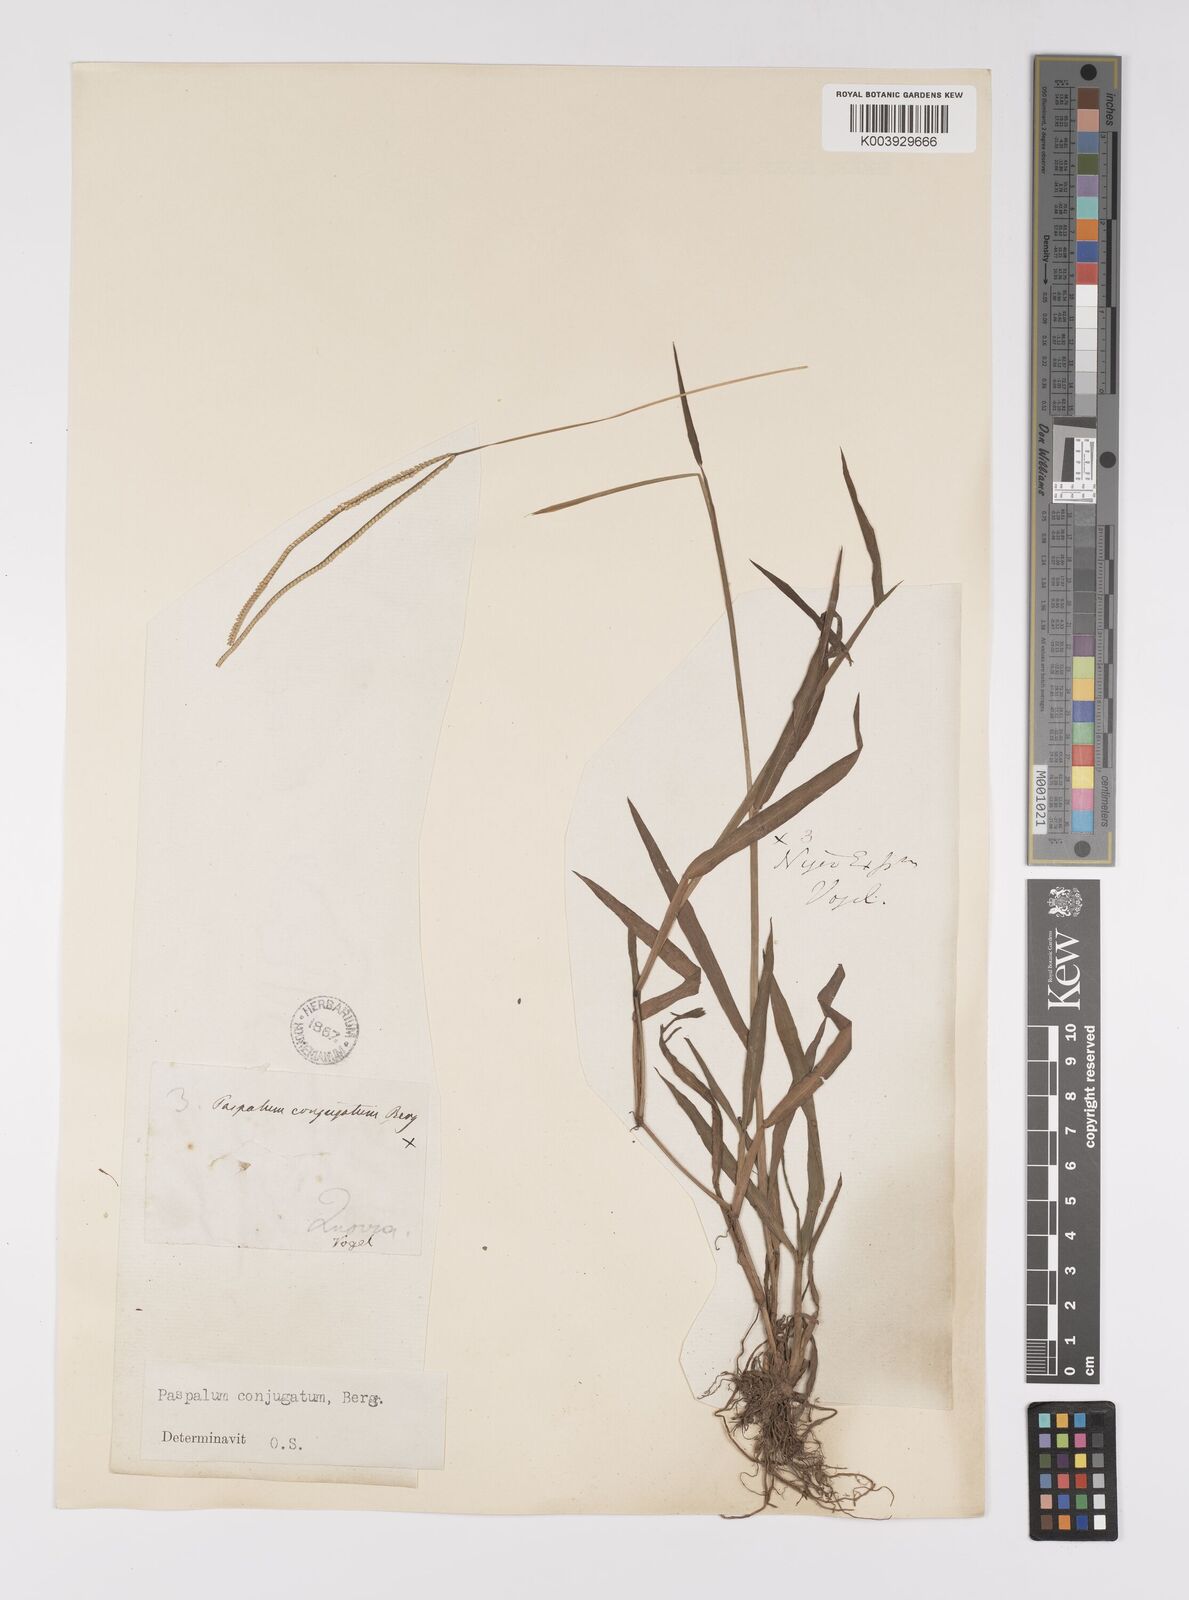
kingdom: Plantae
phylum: Tracheophyta
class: Liliopsida
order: Poales
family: Poaceae
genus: Paspalum
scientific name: Paspalum conjugatum
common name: Hilograss
